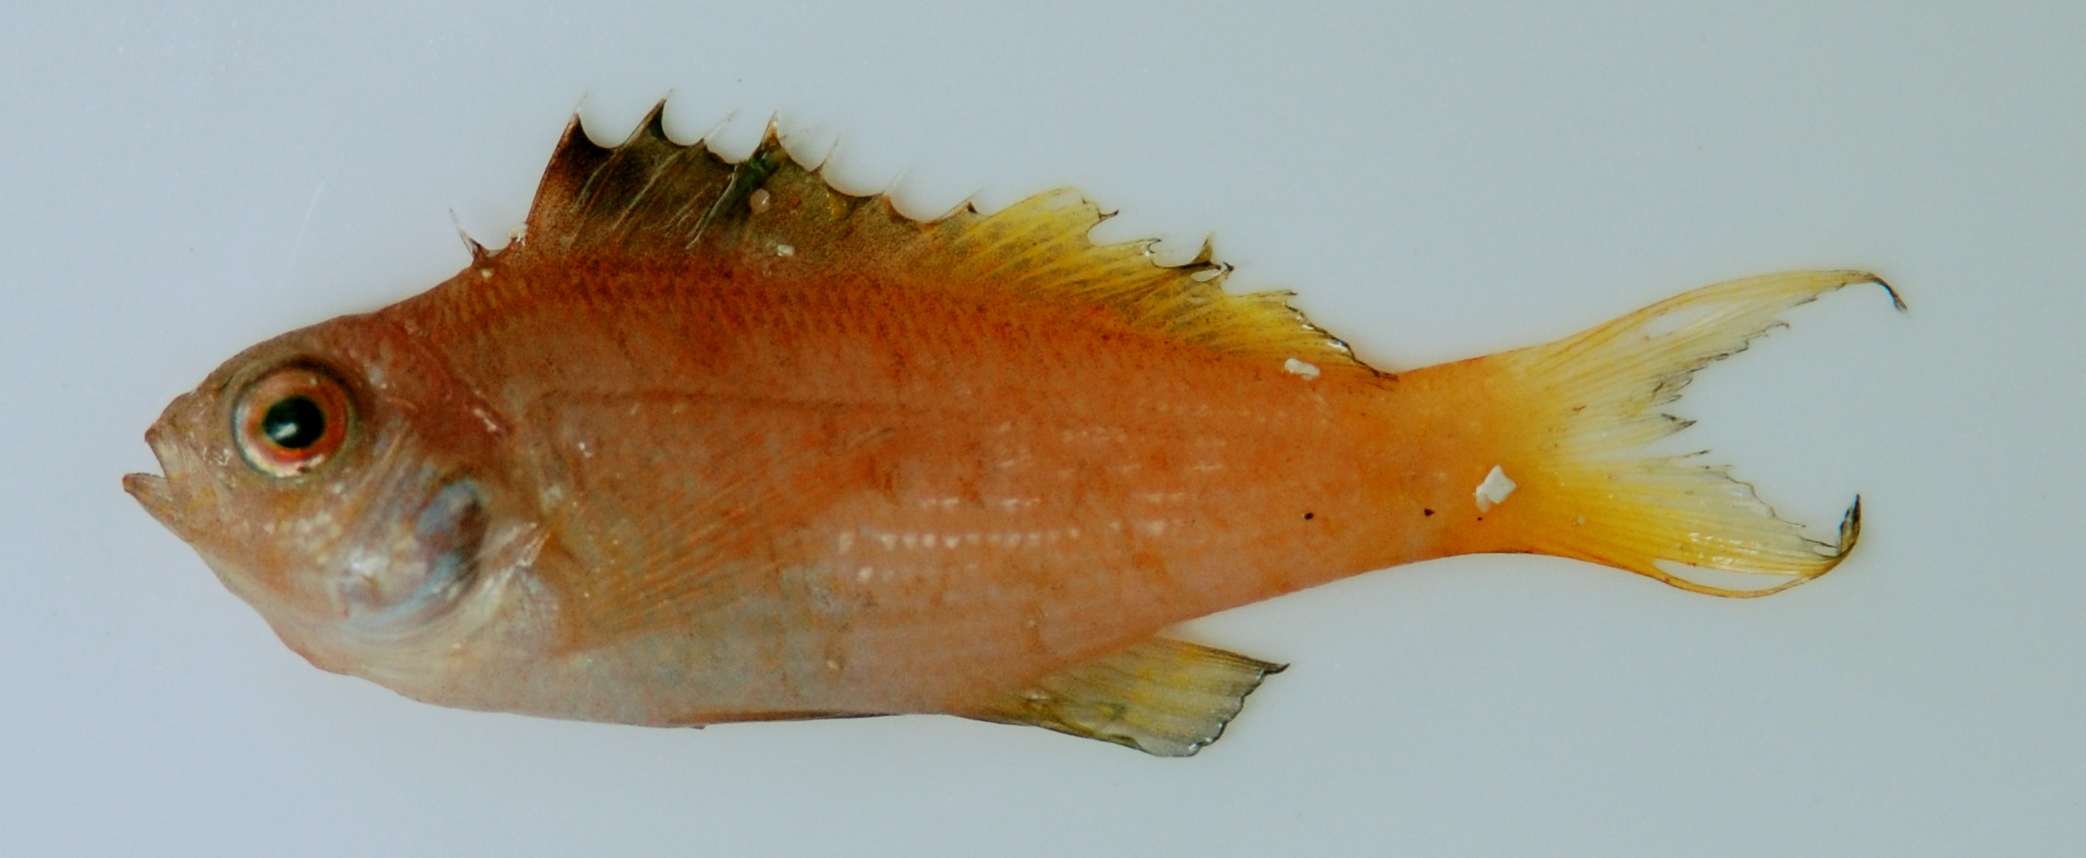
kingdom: Animalia
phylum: Chordata
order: Perciformes
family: Cirrhitidae
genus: Cyprinocirrhites
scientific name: Cyprinocirrhites polyactis
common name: Swallowtail hawkfish
